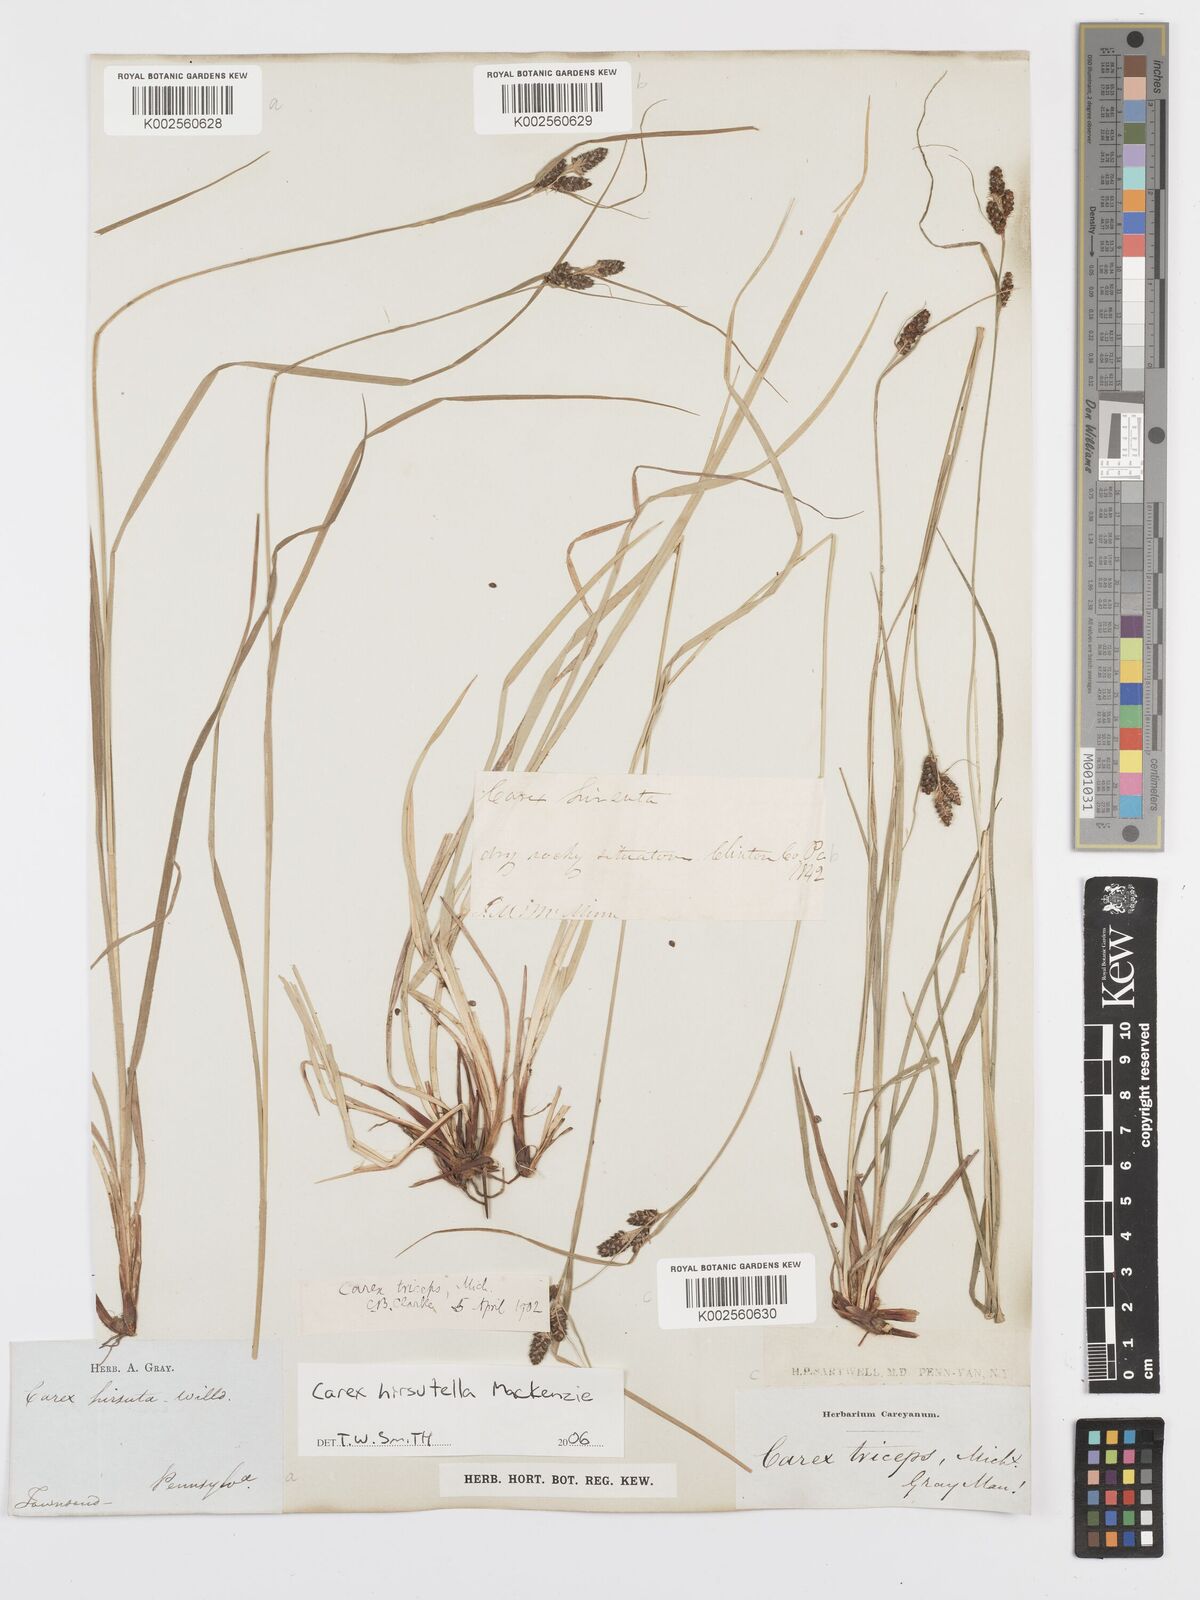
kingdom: Plantae
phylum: Tracheophyta
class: Liliopsida
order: Poales
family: Cyperaceae
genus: Carex
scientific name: Carex hirsutella
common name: Fuzzy wuzzy sedge
